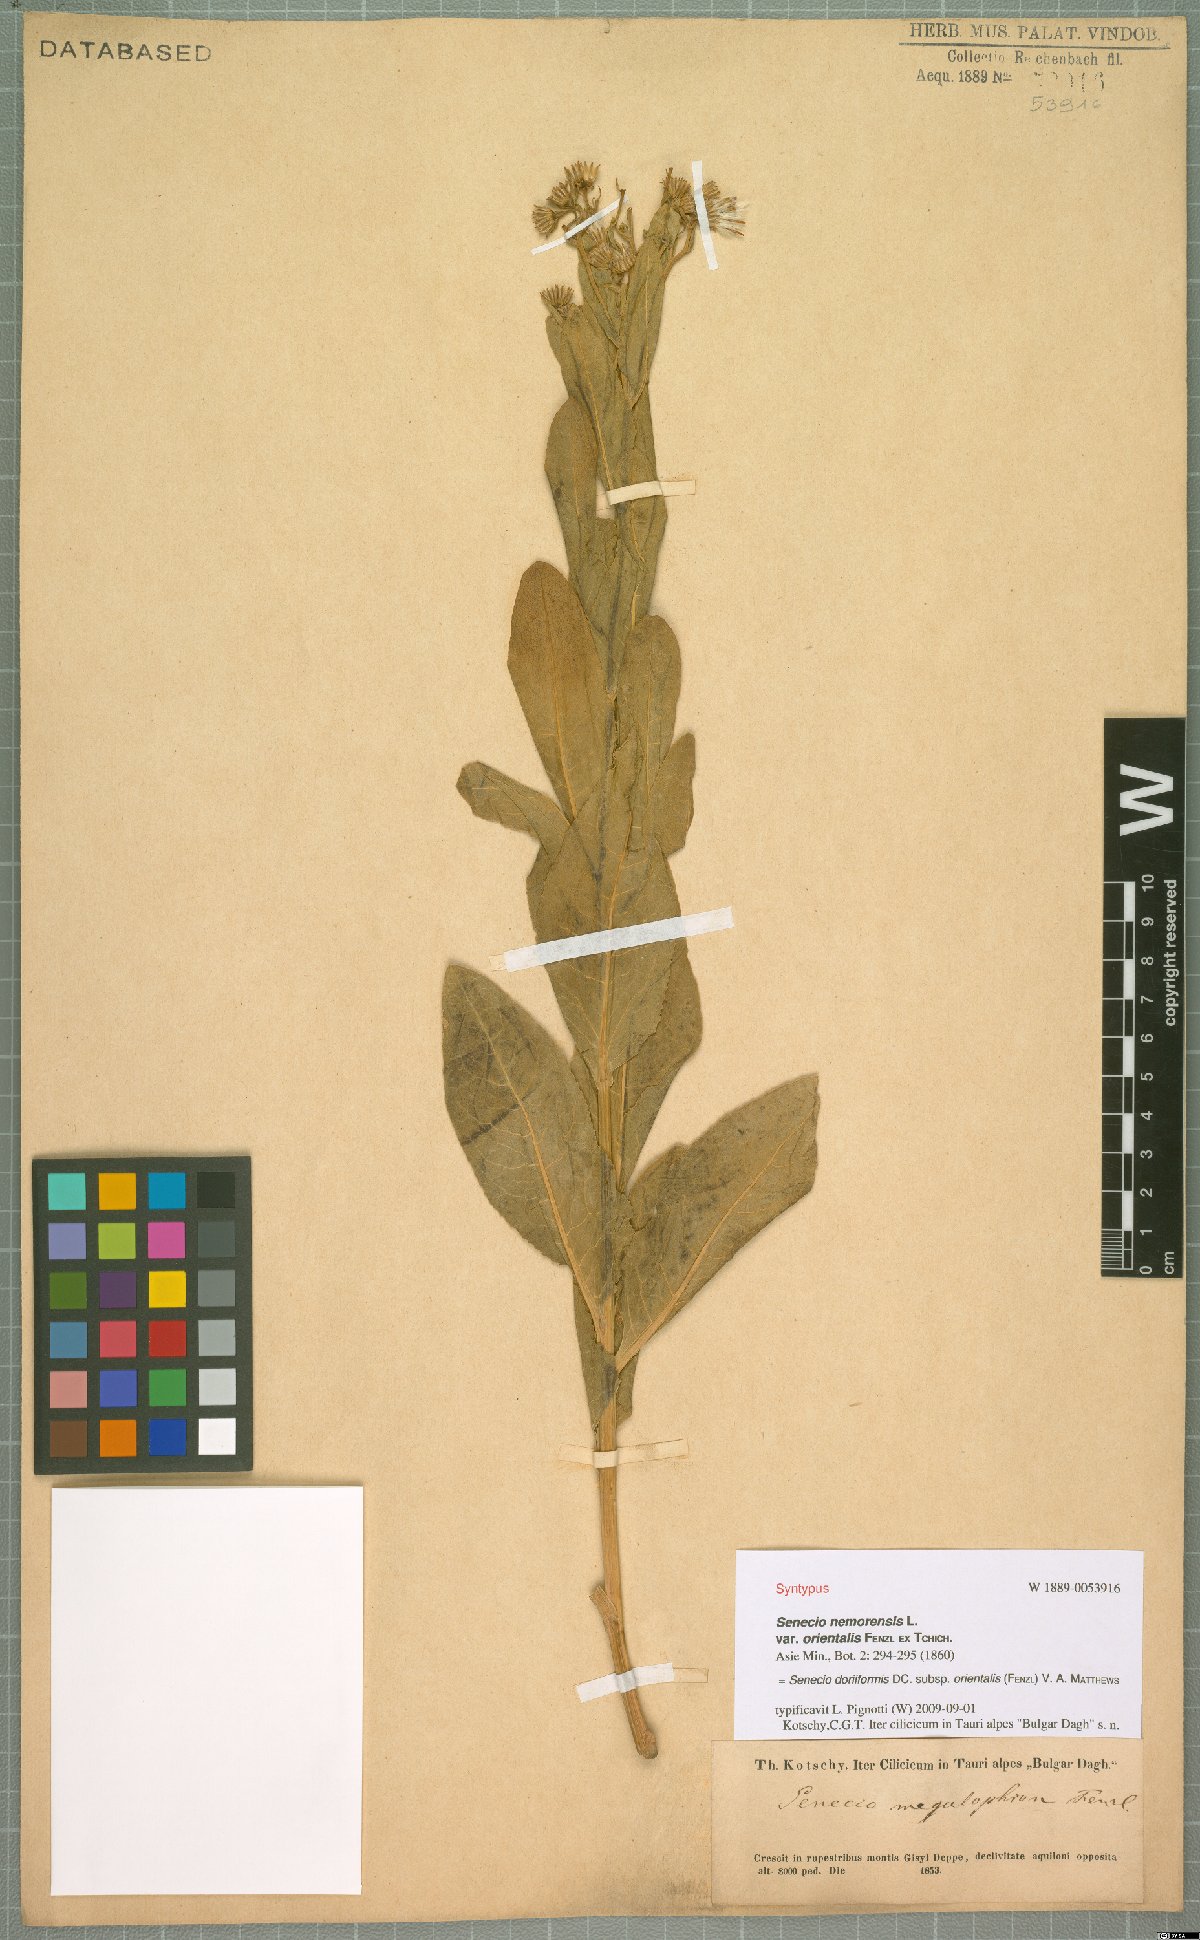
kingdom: Plantae
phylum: Tracheophyta
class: Magnoliopsida
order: Asterales
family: Asteraceae
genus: Senecio
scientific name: Senecio doriiformis
